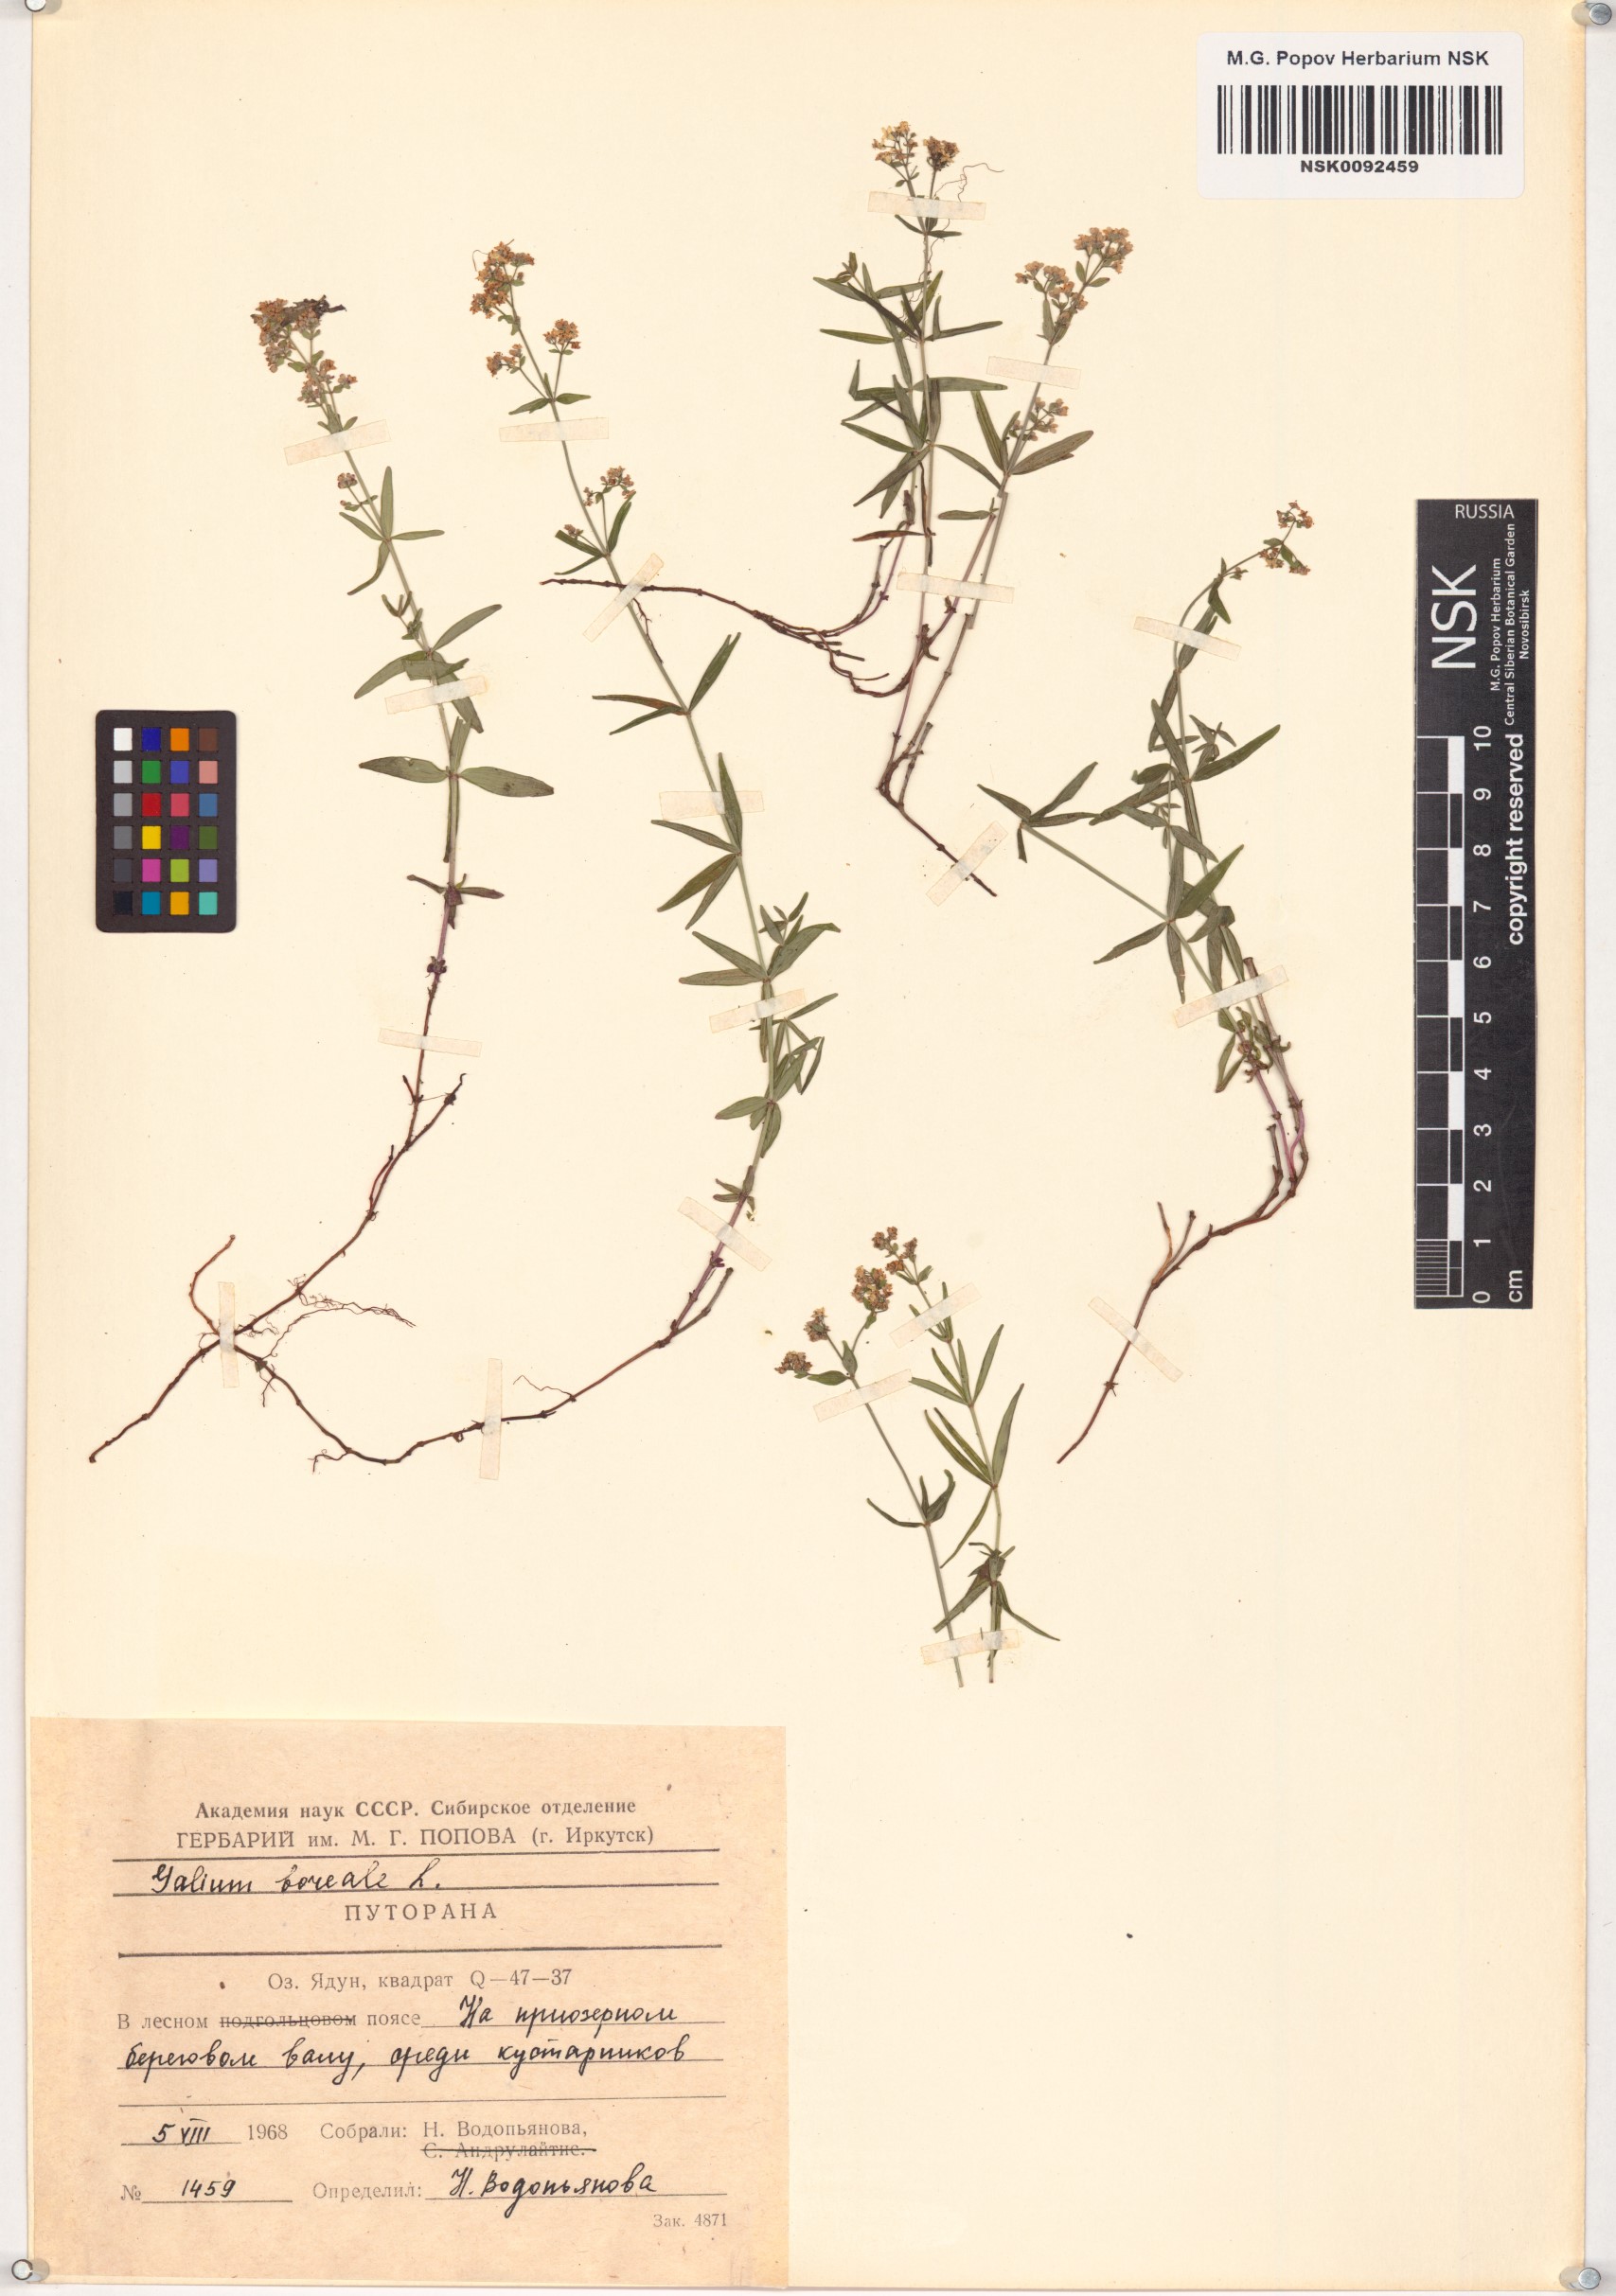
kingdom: Plantae
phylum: Tracheophyta
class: Magnoliopsida
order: Gentianales
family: Rubiaceae
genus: Galium
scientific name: Galium boreale
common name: Northern bedstraw
